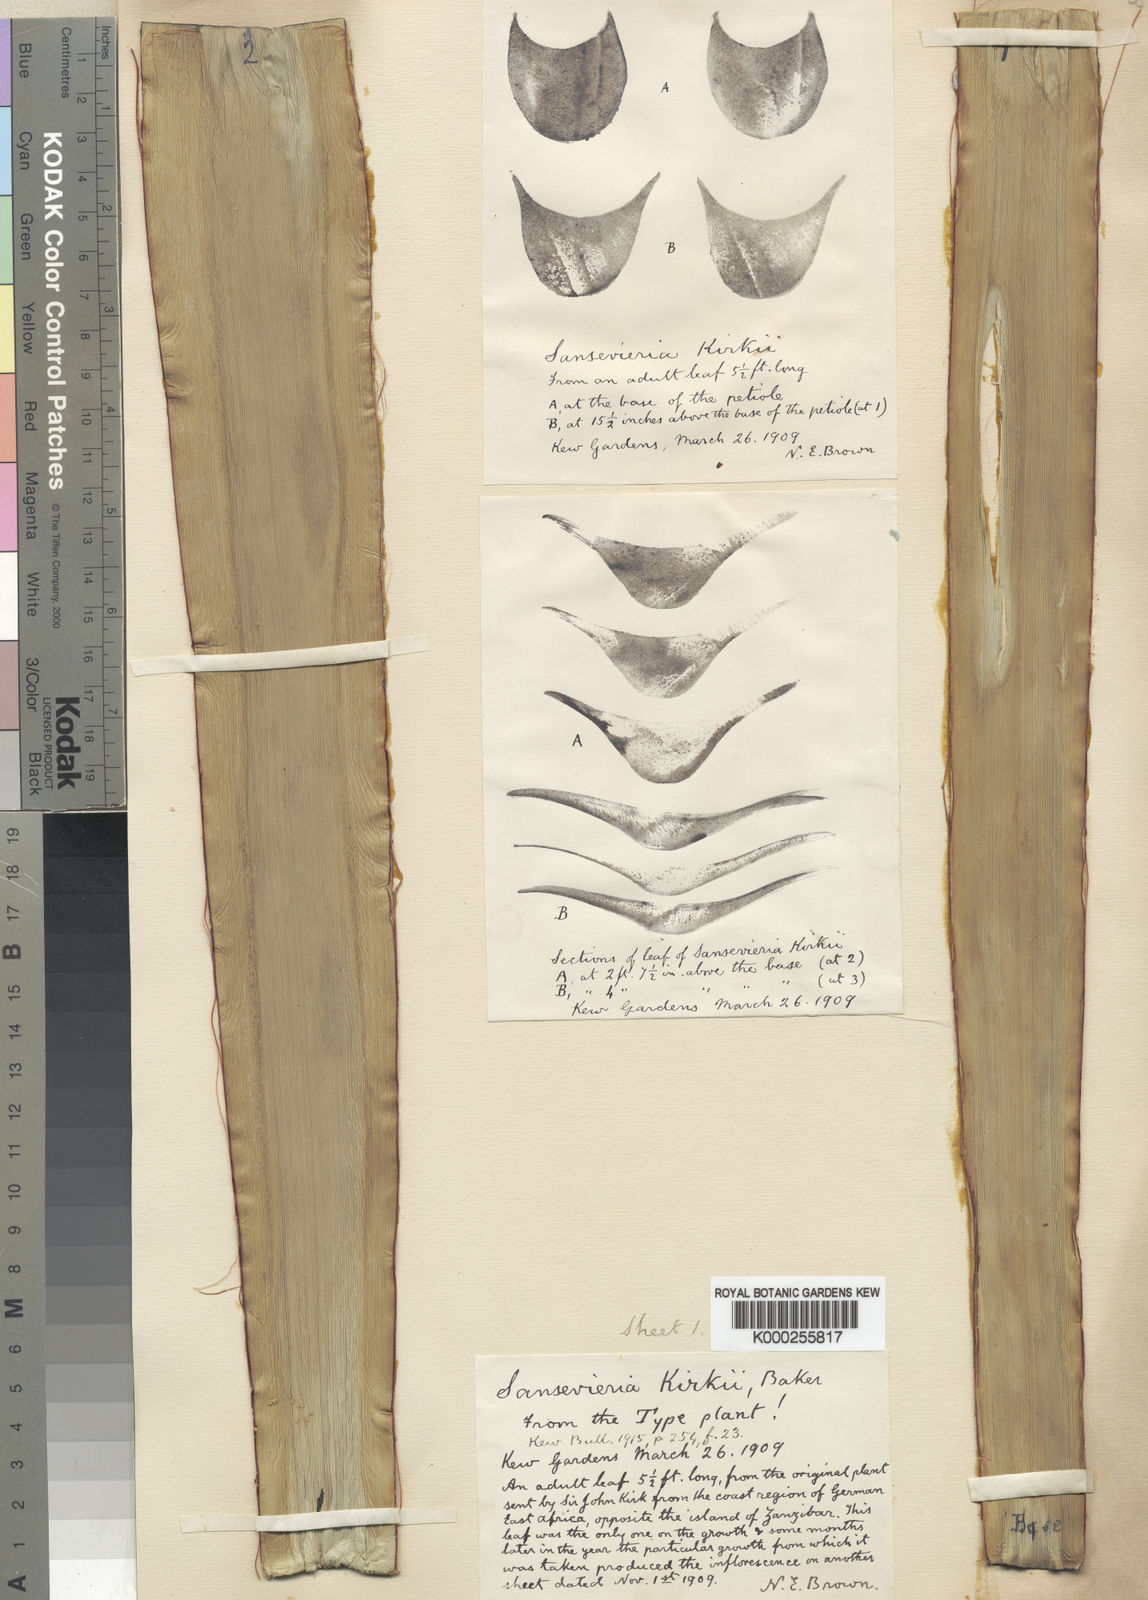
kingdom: Plantae
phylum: Tracheophyta
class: Liliopsida
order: Asparagales
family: Asparagaceae
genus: Dracaena
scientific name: Dracaena pethera
